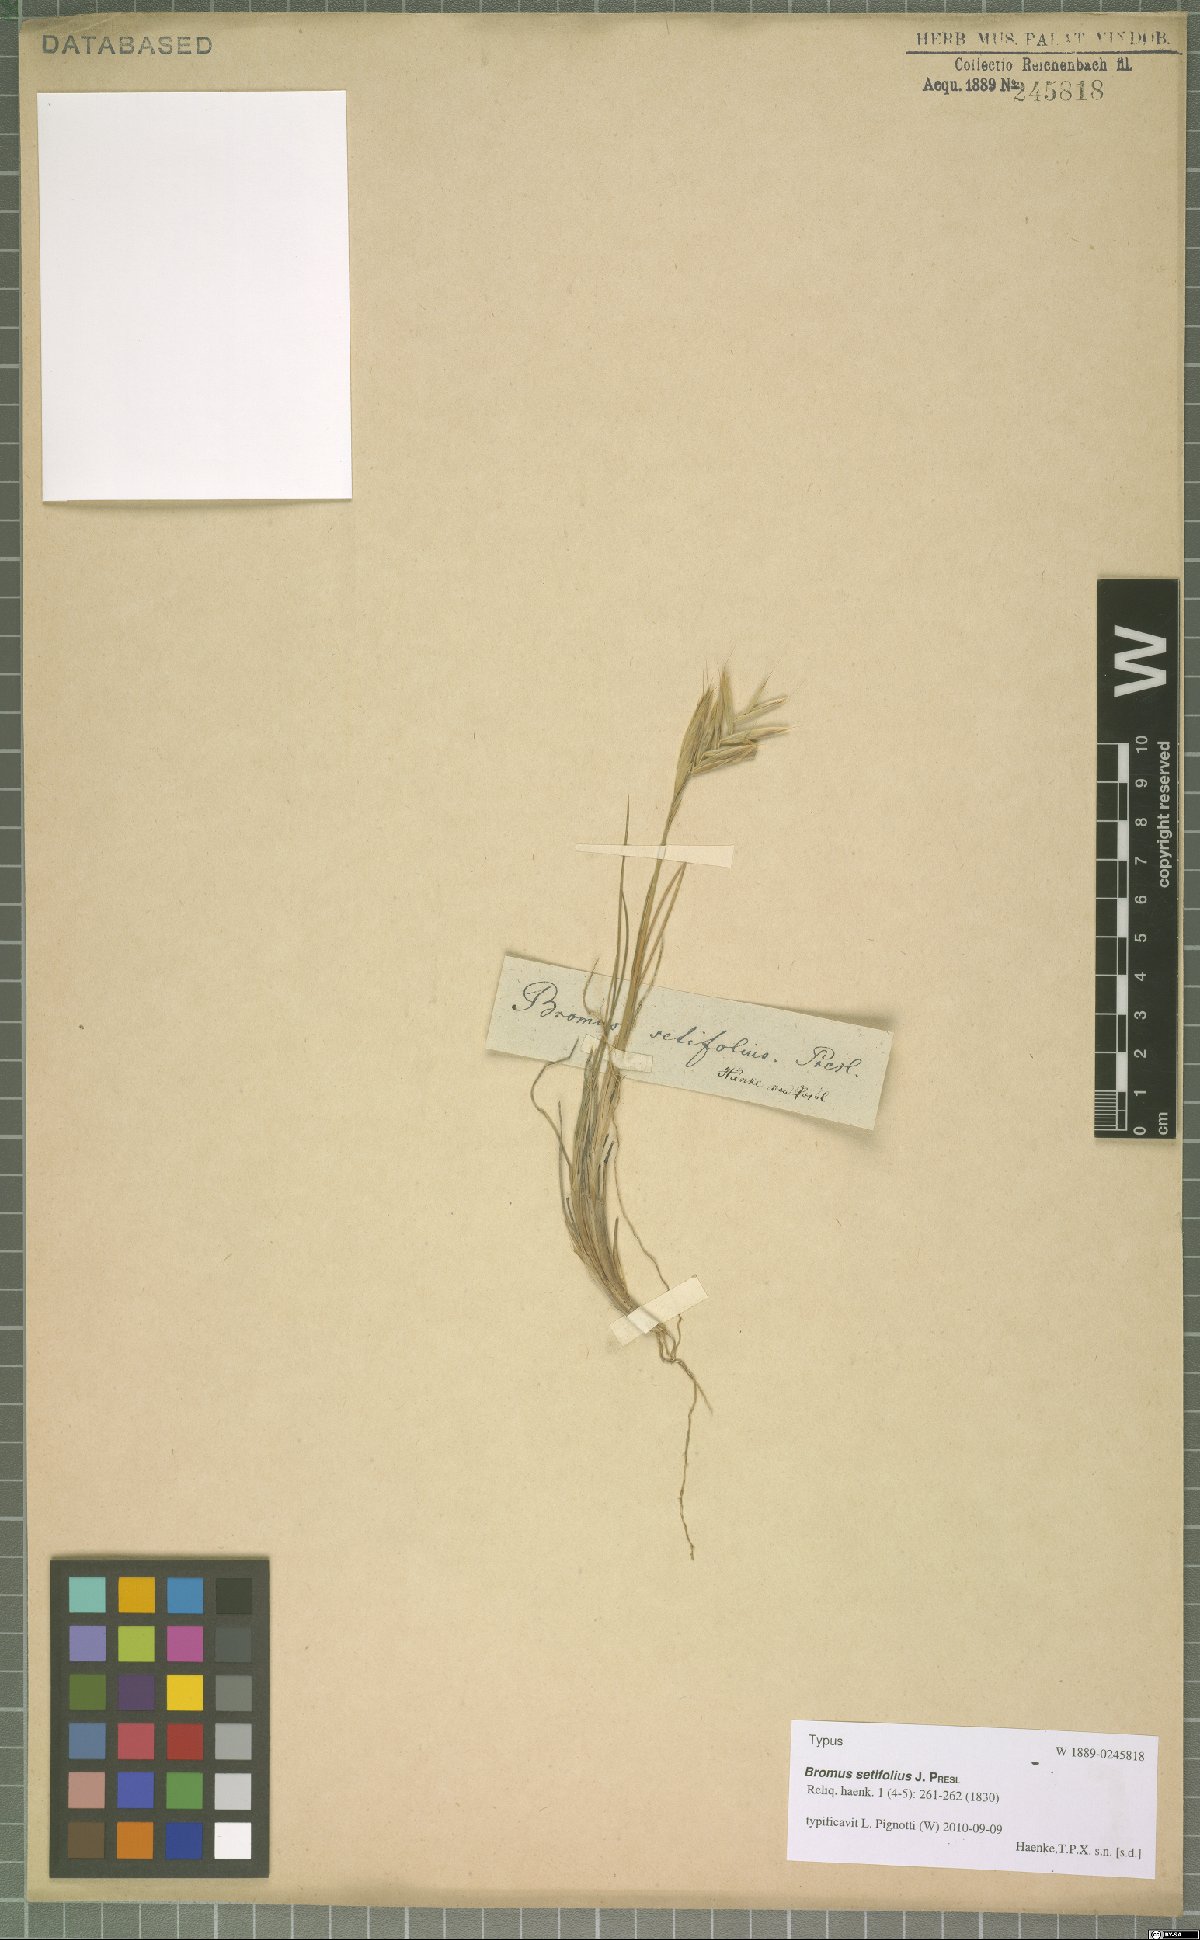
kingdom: Plantae
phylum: Tracheophyta
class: Liliopsida
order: Poales
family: Poaceae
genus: Bromus
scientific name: Bromus setifolius
